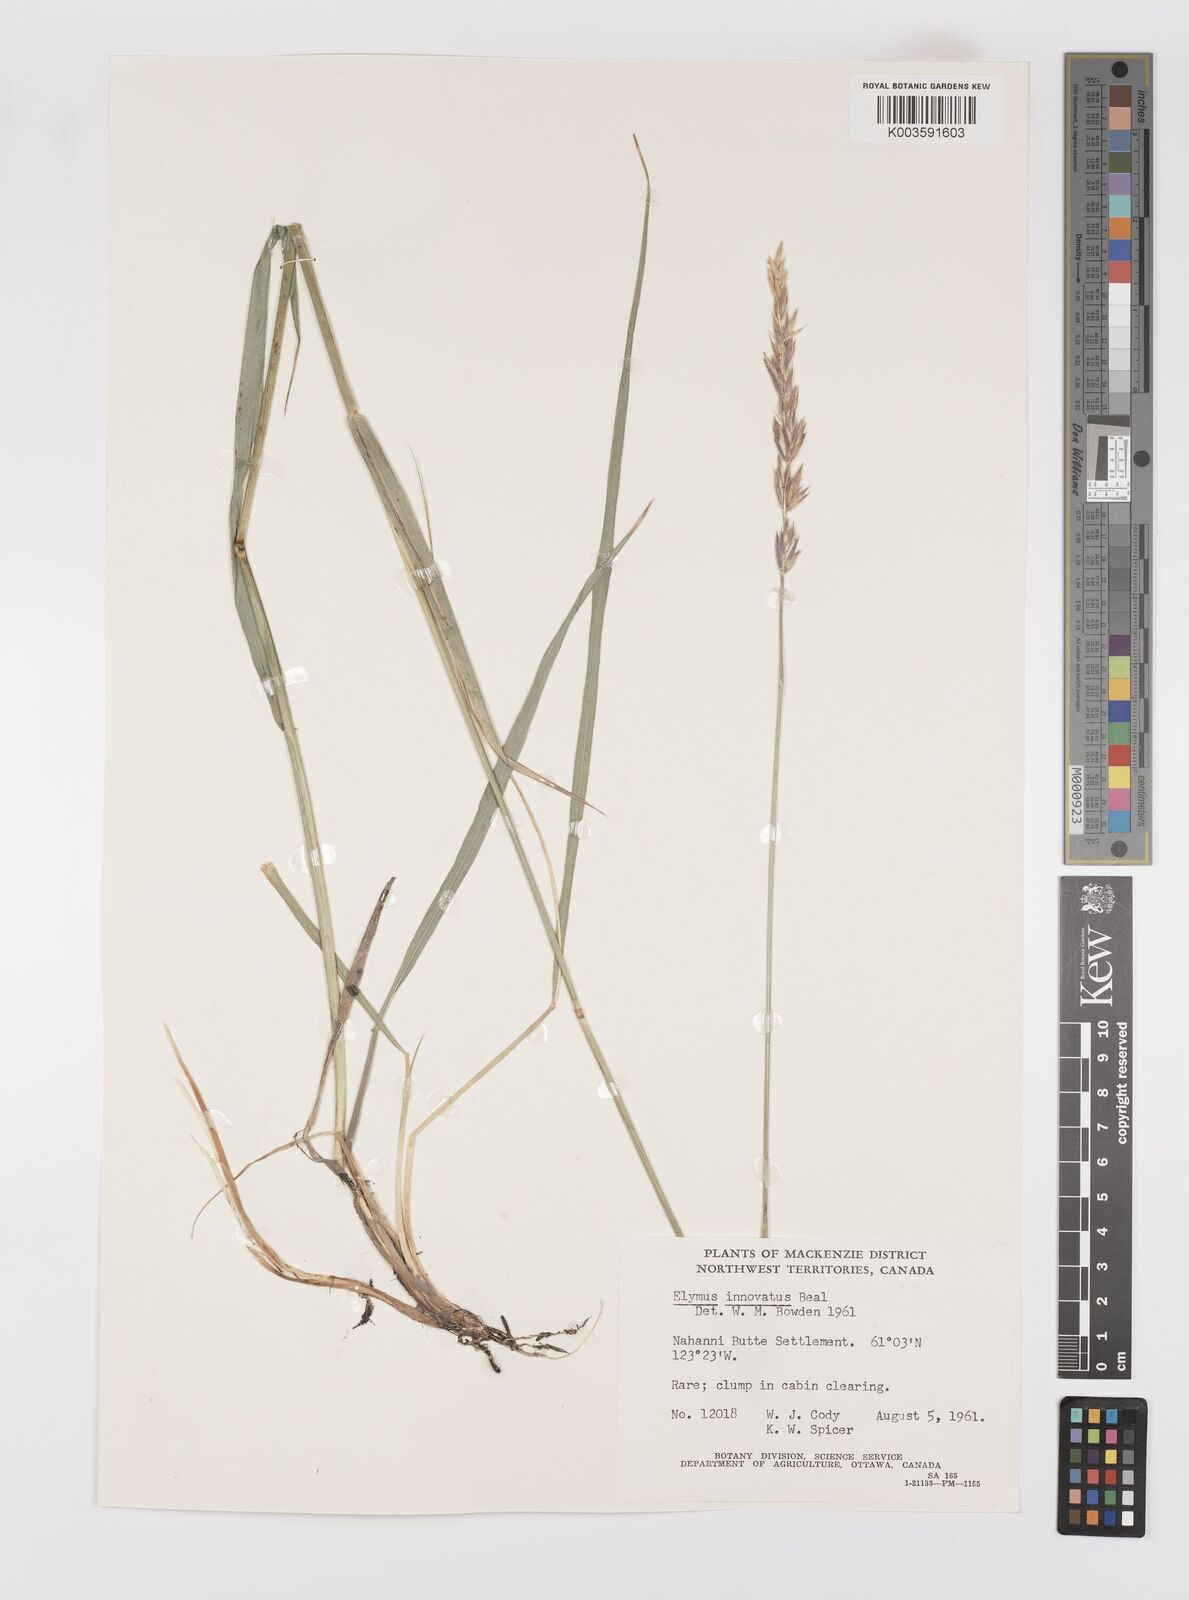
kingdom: Plantae
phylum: Tracheophyta
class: Liliopsida
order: Poales
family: Poaceae
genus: Leymus
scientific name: Leymus innovatus
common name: Boreal wild rye
